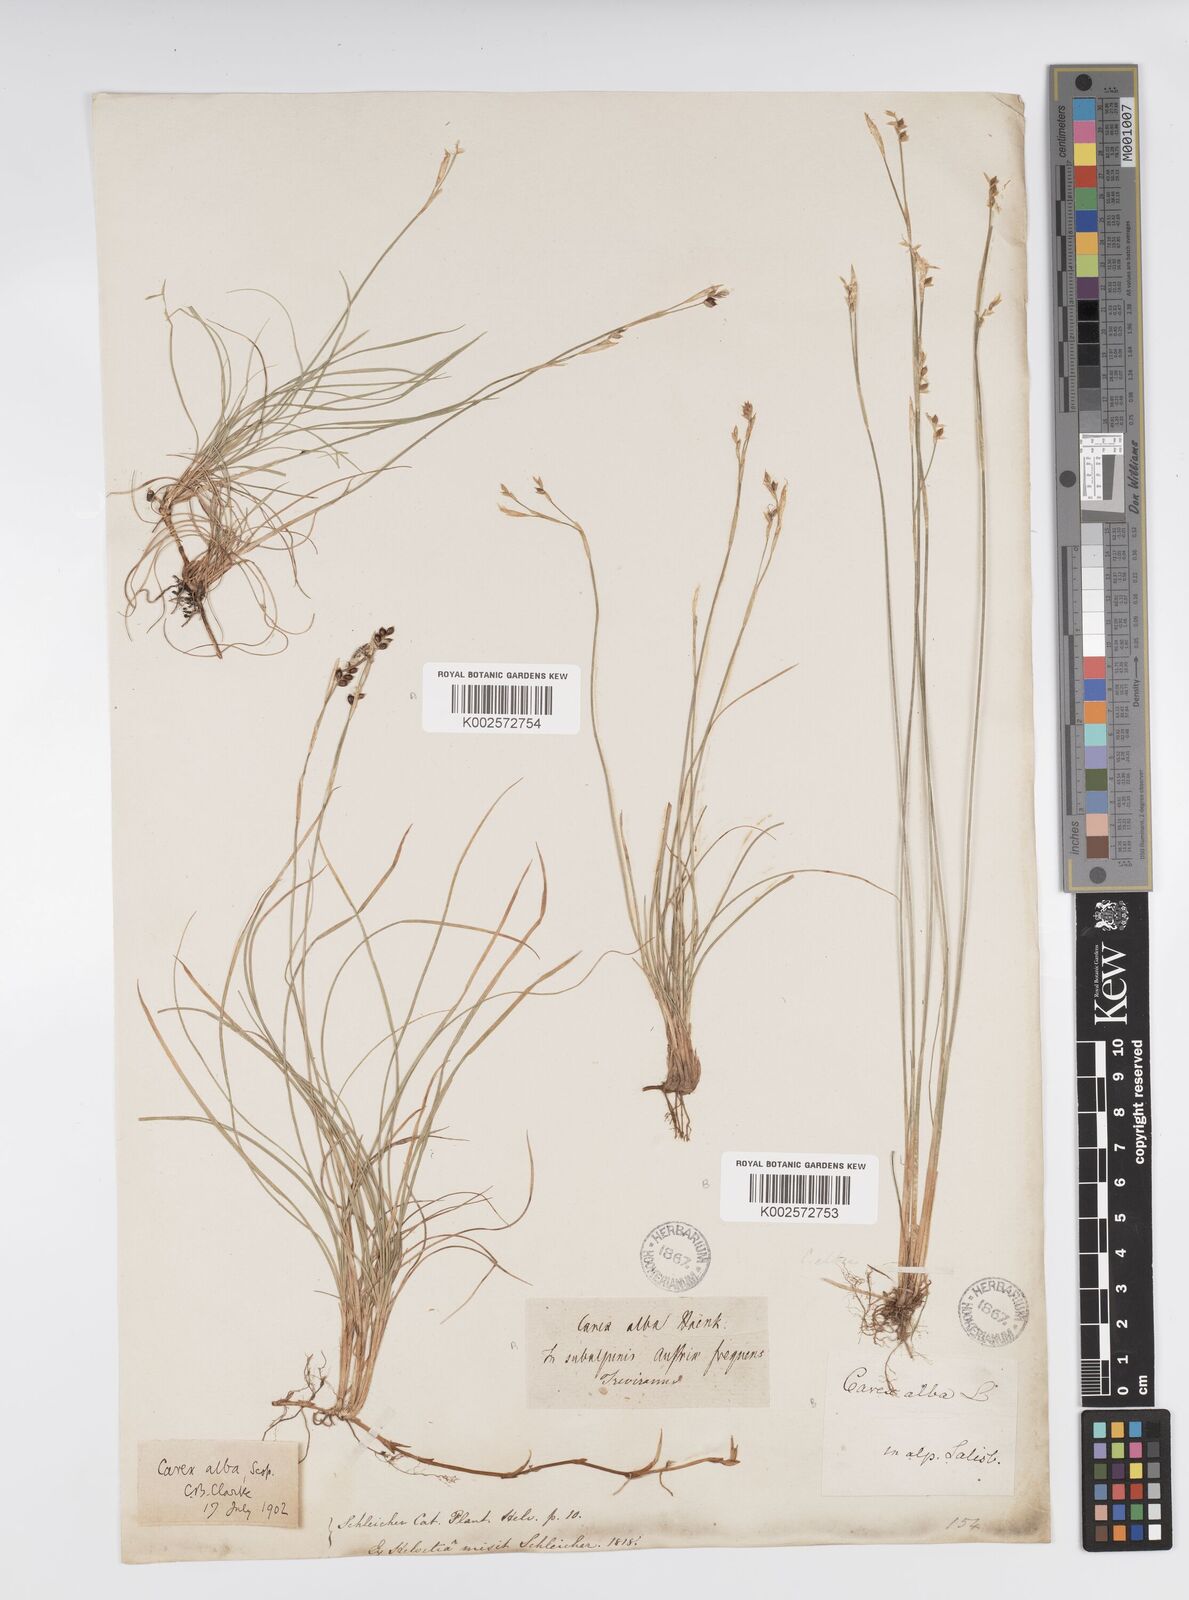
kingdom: Plantae
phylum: Tracheophyta
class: Liliopsida
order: Poales
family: Cyperaceae
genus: Carex
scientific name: Carex alba
